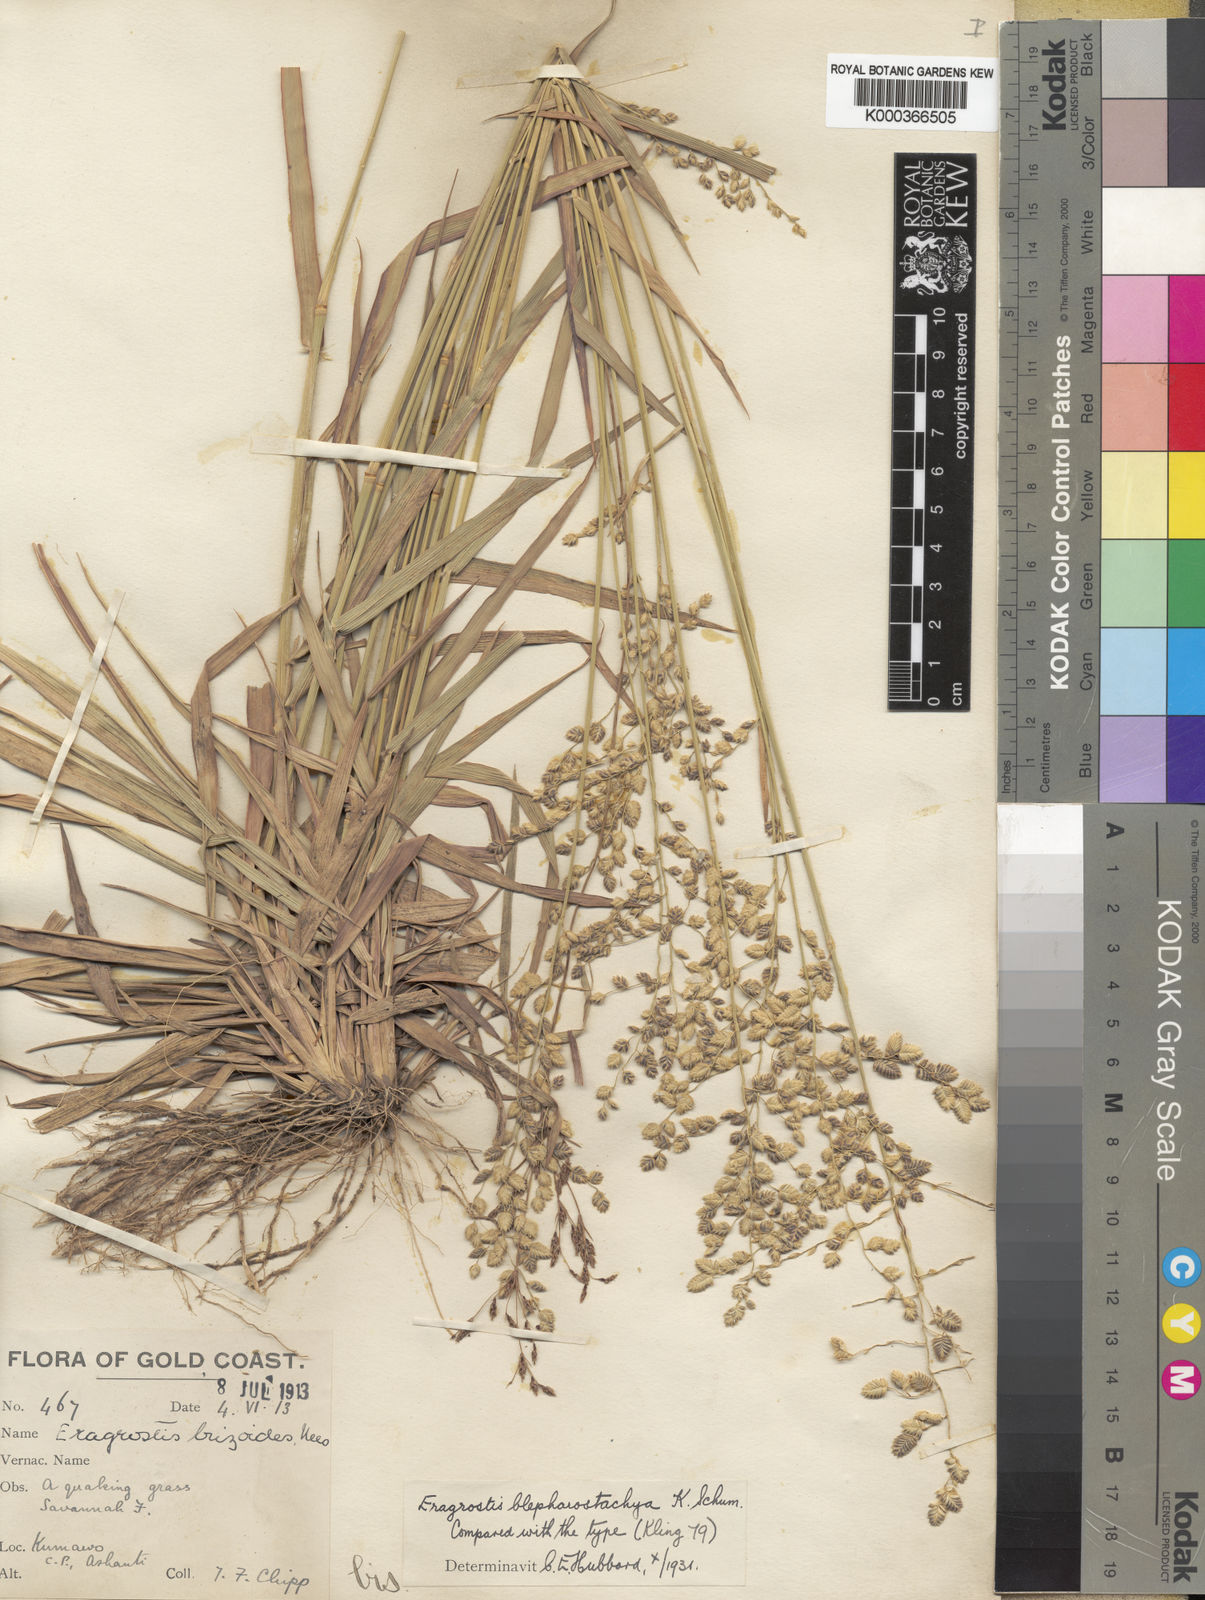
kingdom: Plantae
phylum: Tracheophyta
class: Liliopsida
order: Poales
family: Poaceae
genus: Eragrostis
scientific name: Eragrostis blepharostachya
